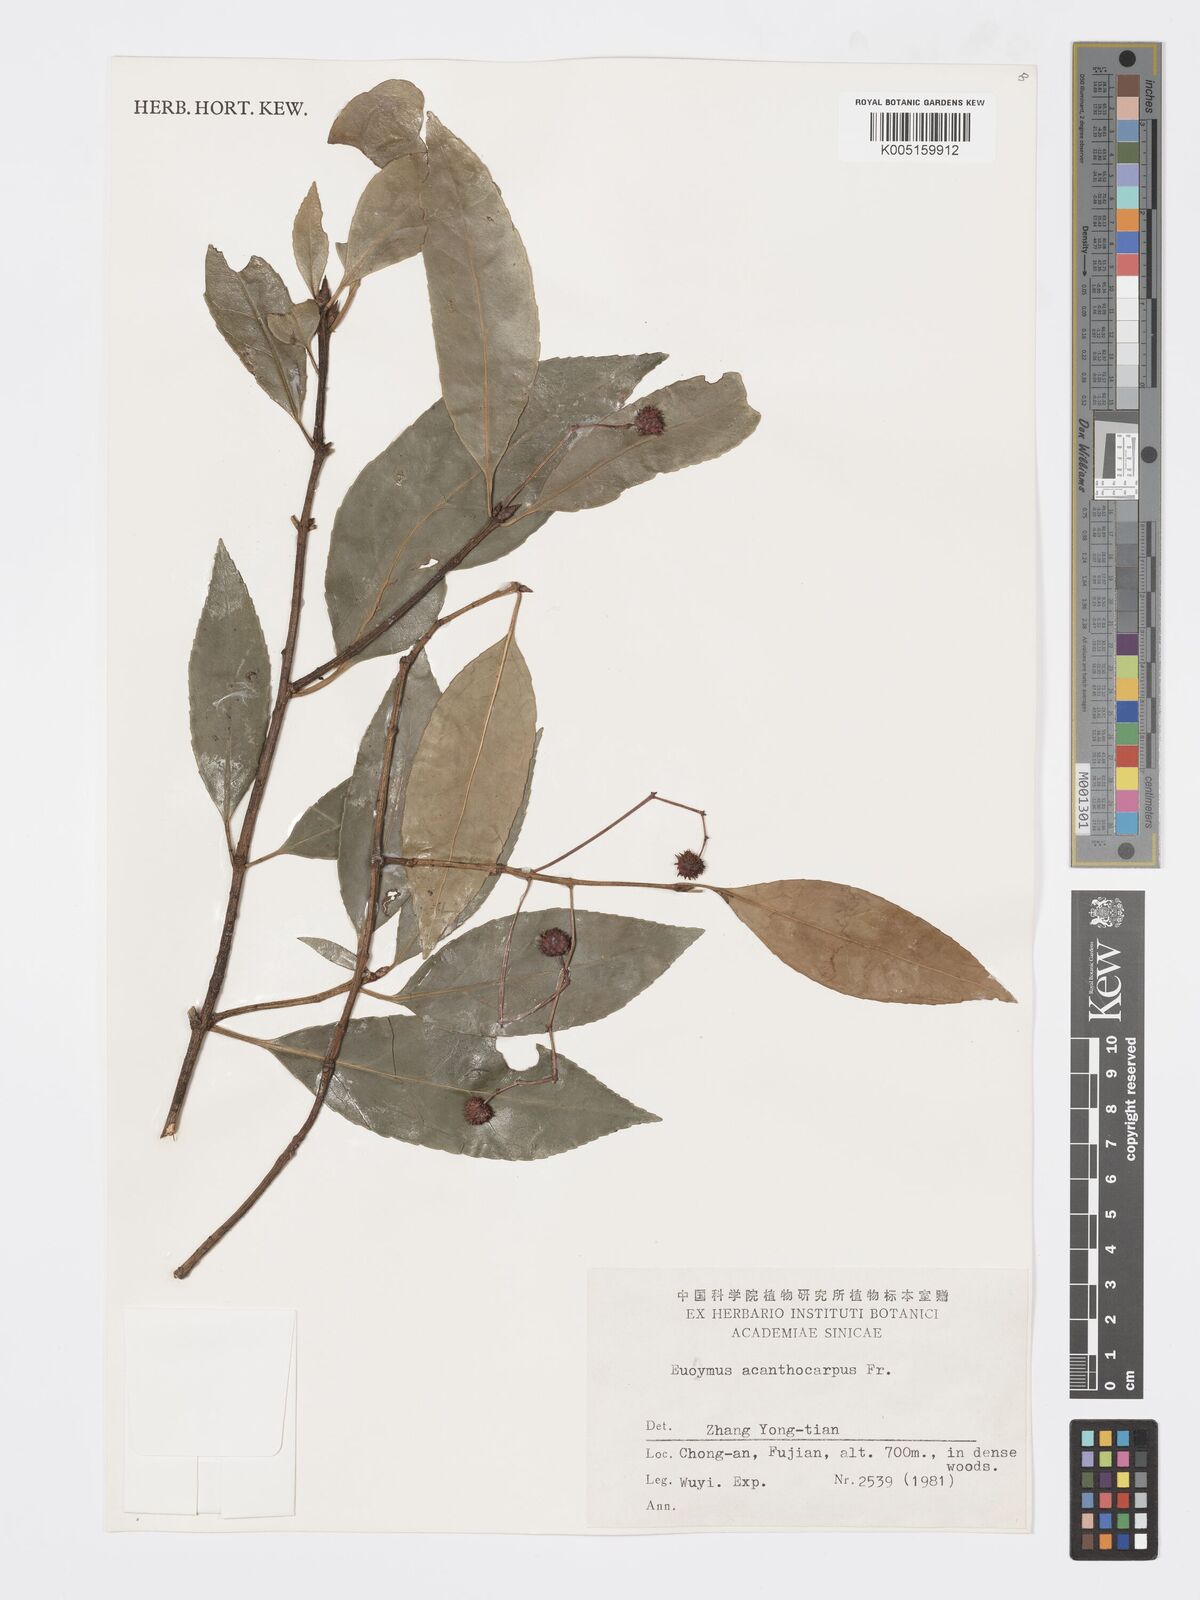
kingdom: Plantae
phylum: Tracheophyta
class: Magnoliopsida
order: Celastrales
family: Celastraceae
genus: Euonymus
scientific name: Euonymus acanthocarpus
